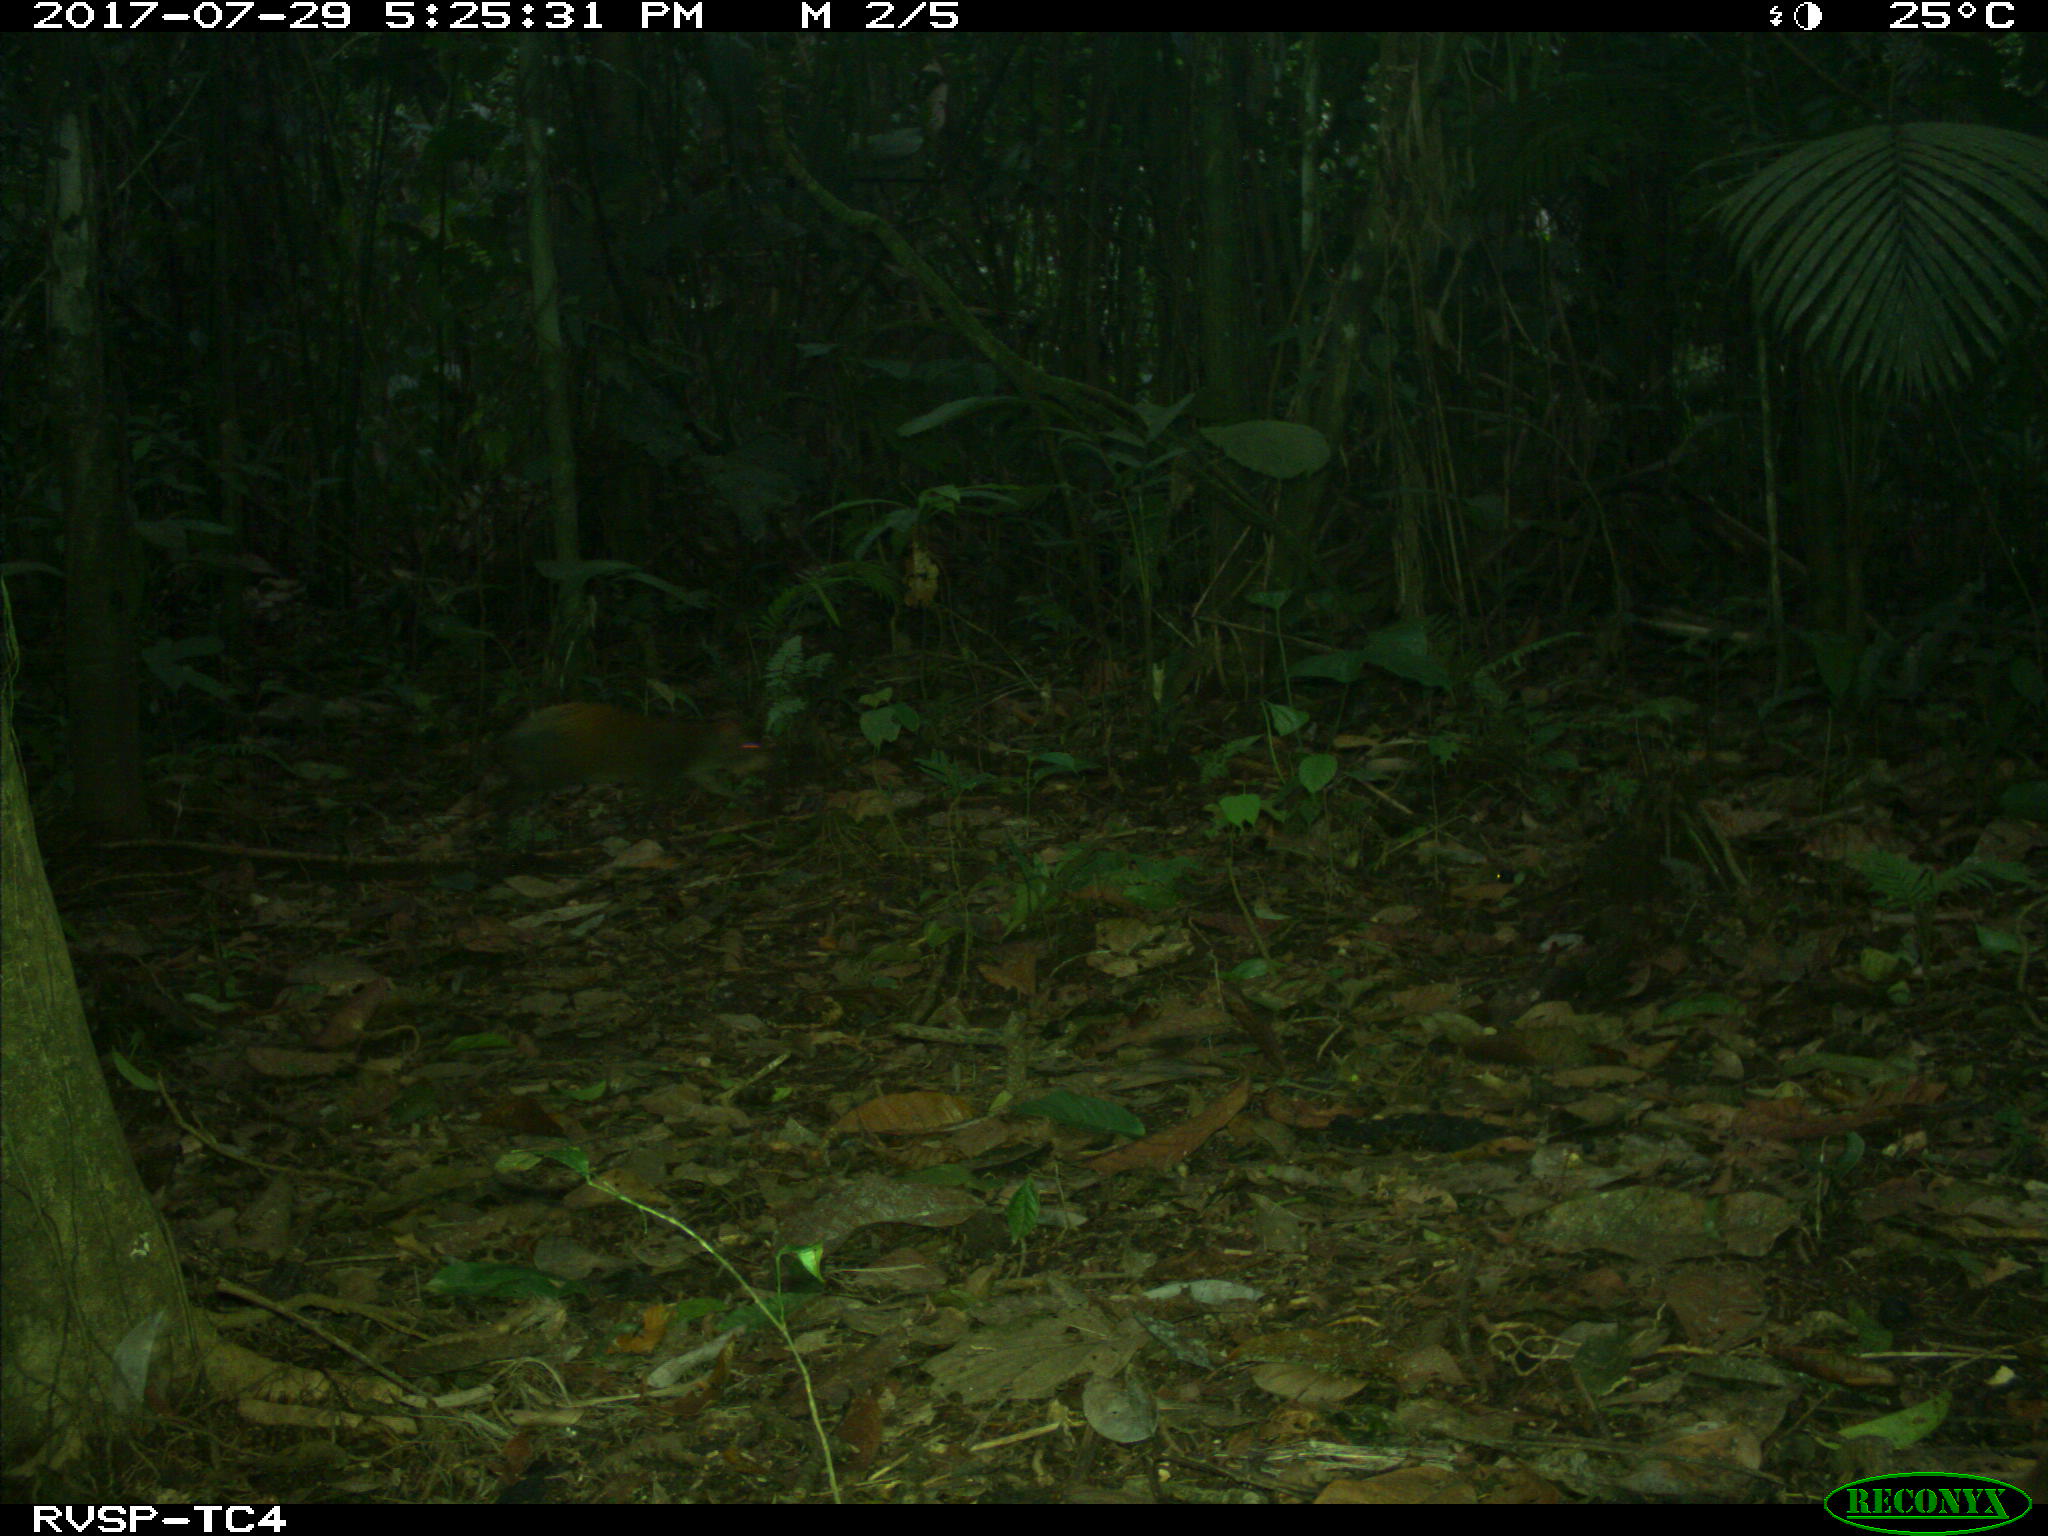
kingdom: Animalia
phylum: Chordata
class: Mammalia
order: Rodentia
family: Dasyproctidae
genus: Dasyprocta
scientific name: Dasyprocta punctata
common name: Central american agouti
